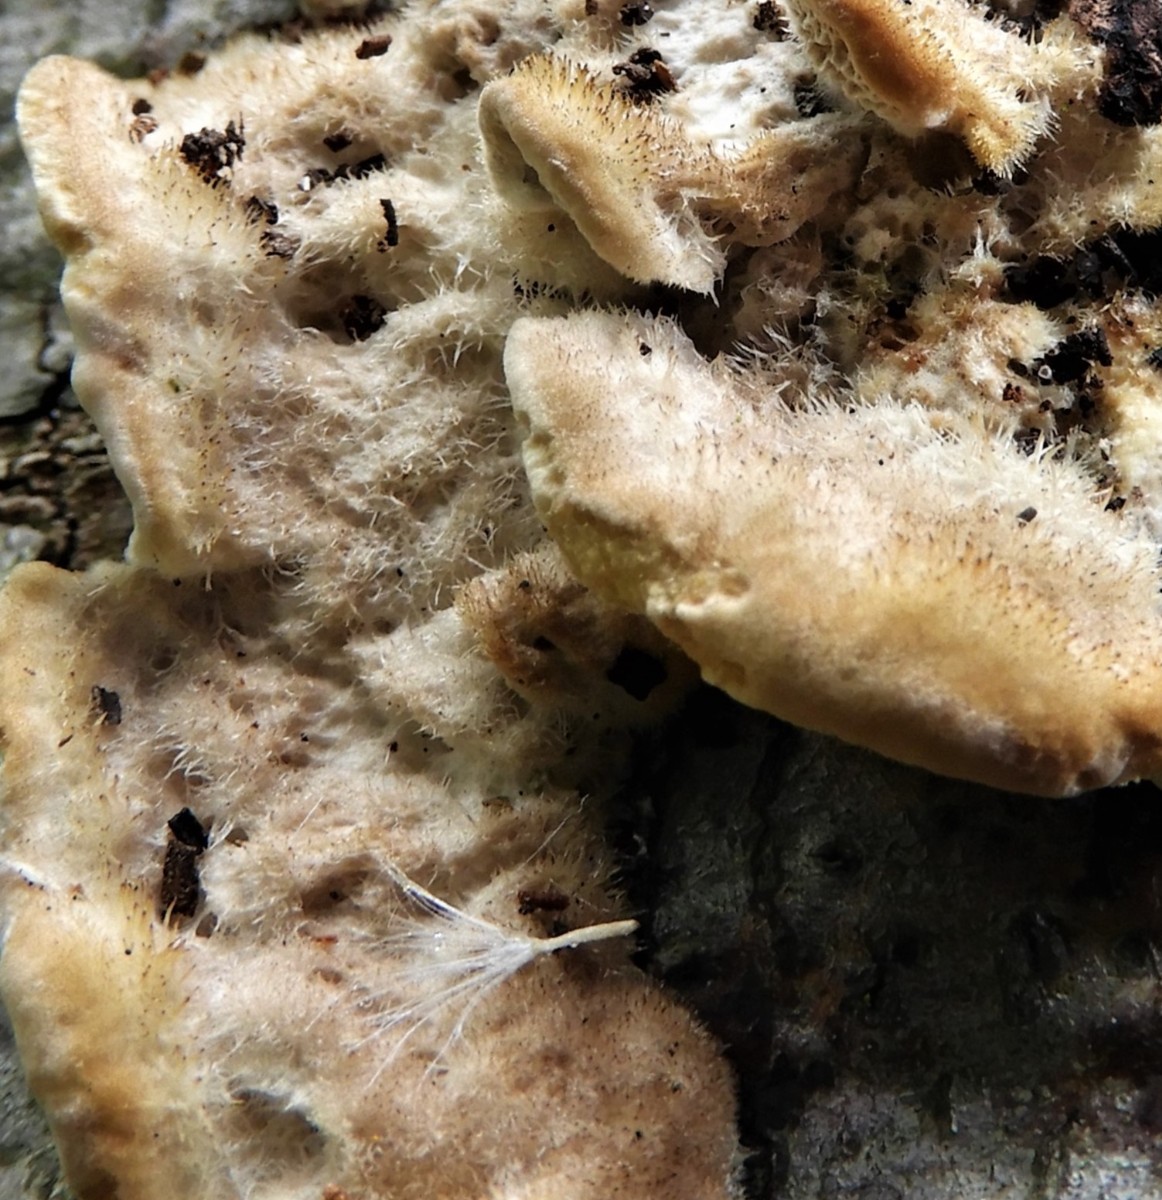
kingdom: Fungi
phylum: Basidiomycota
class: Agaricomycetes
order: Polyporales
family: Polyporaceae
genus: Trametes
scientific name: Trametes hirsuta
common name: håret læderporesvamp
